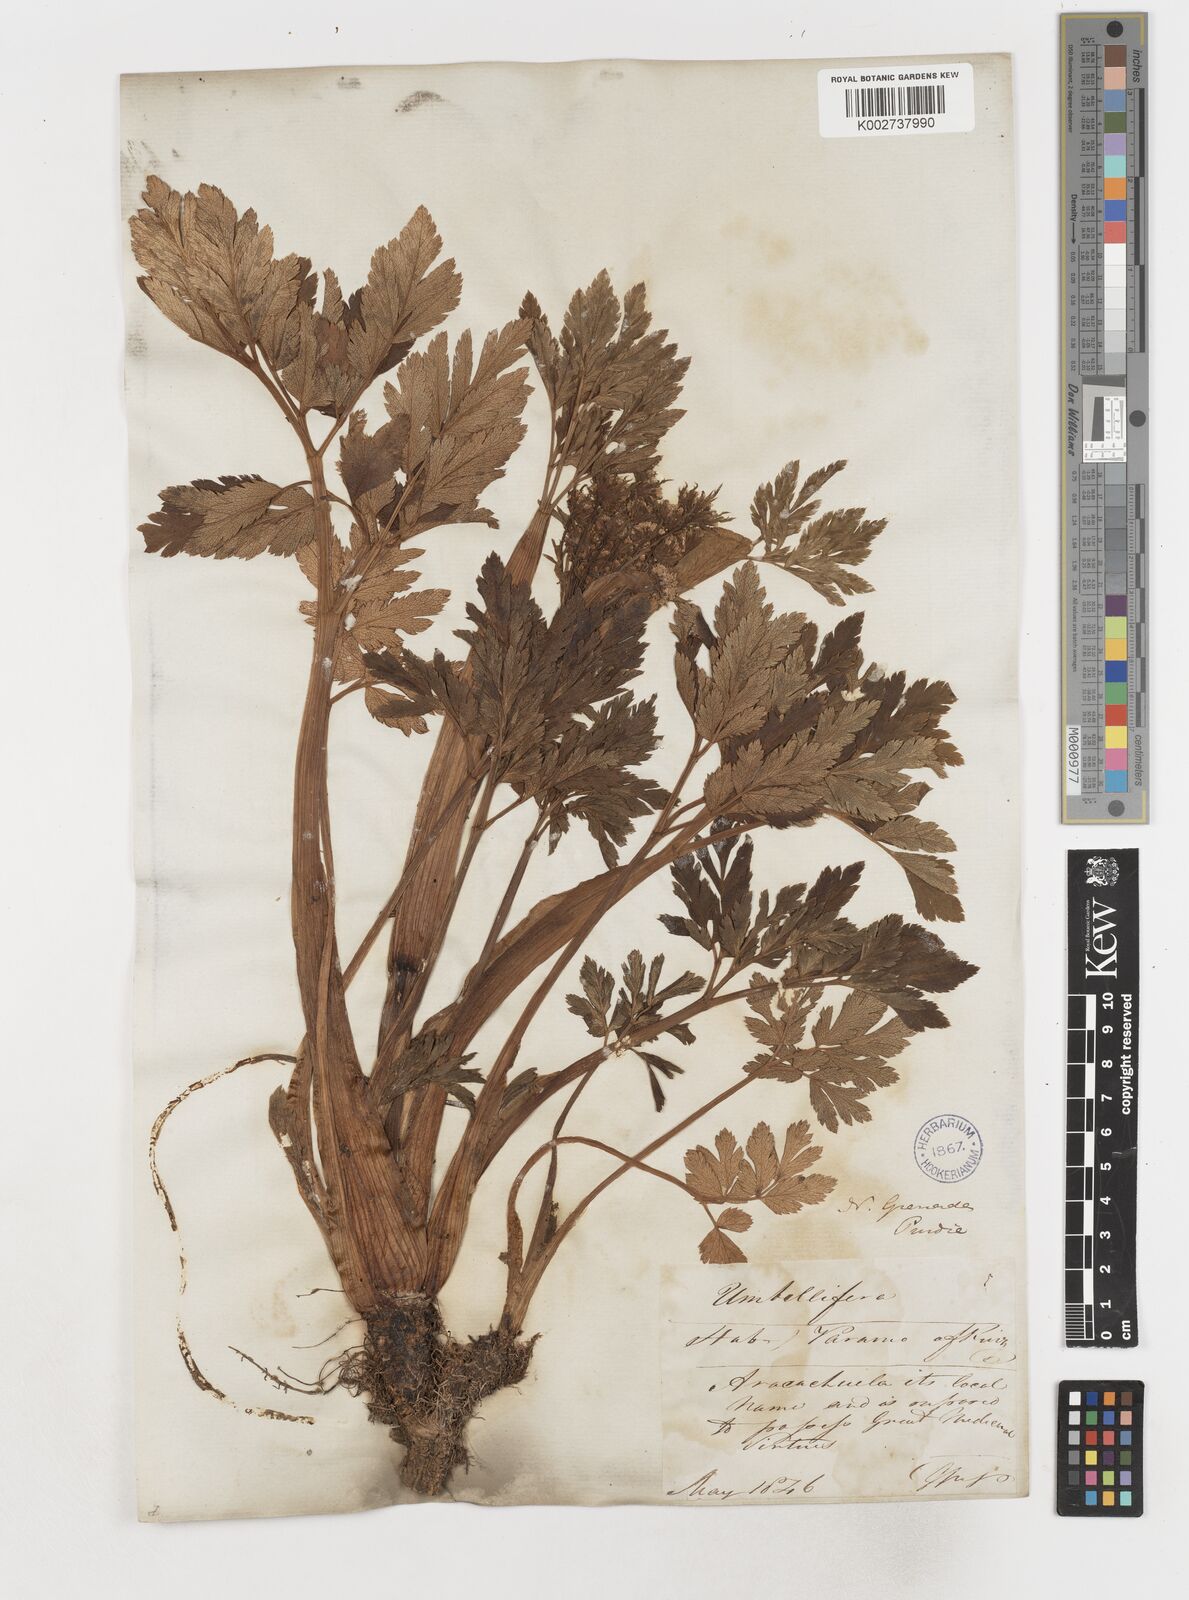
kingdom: Plantae
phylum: Tracheophyta
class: Magnoliopsida
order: Apiales
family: Apiaceae
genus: Myrrhidendron
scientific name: Myrrhidendron glaucescens
